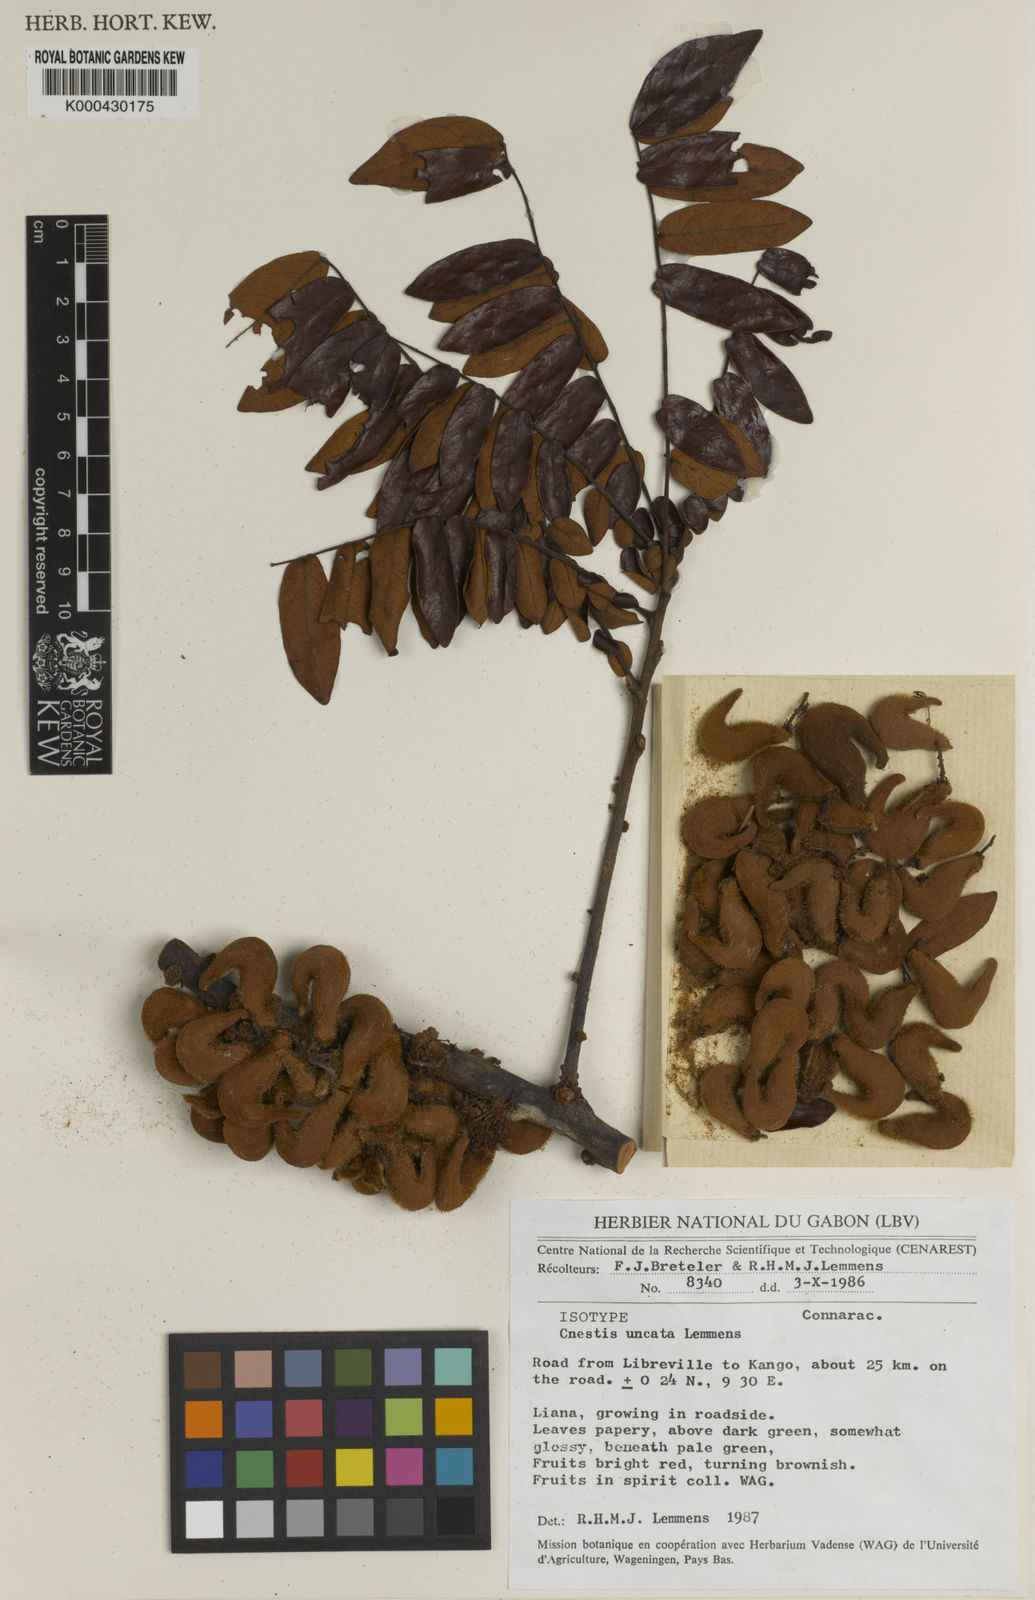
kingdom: Plantae
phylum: Tracheophyta
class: Magnoliopsida
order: Oxalidales
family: Connaraceae
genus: Cnestis
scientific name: Cnestis uncata
